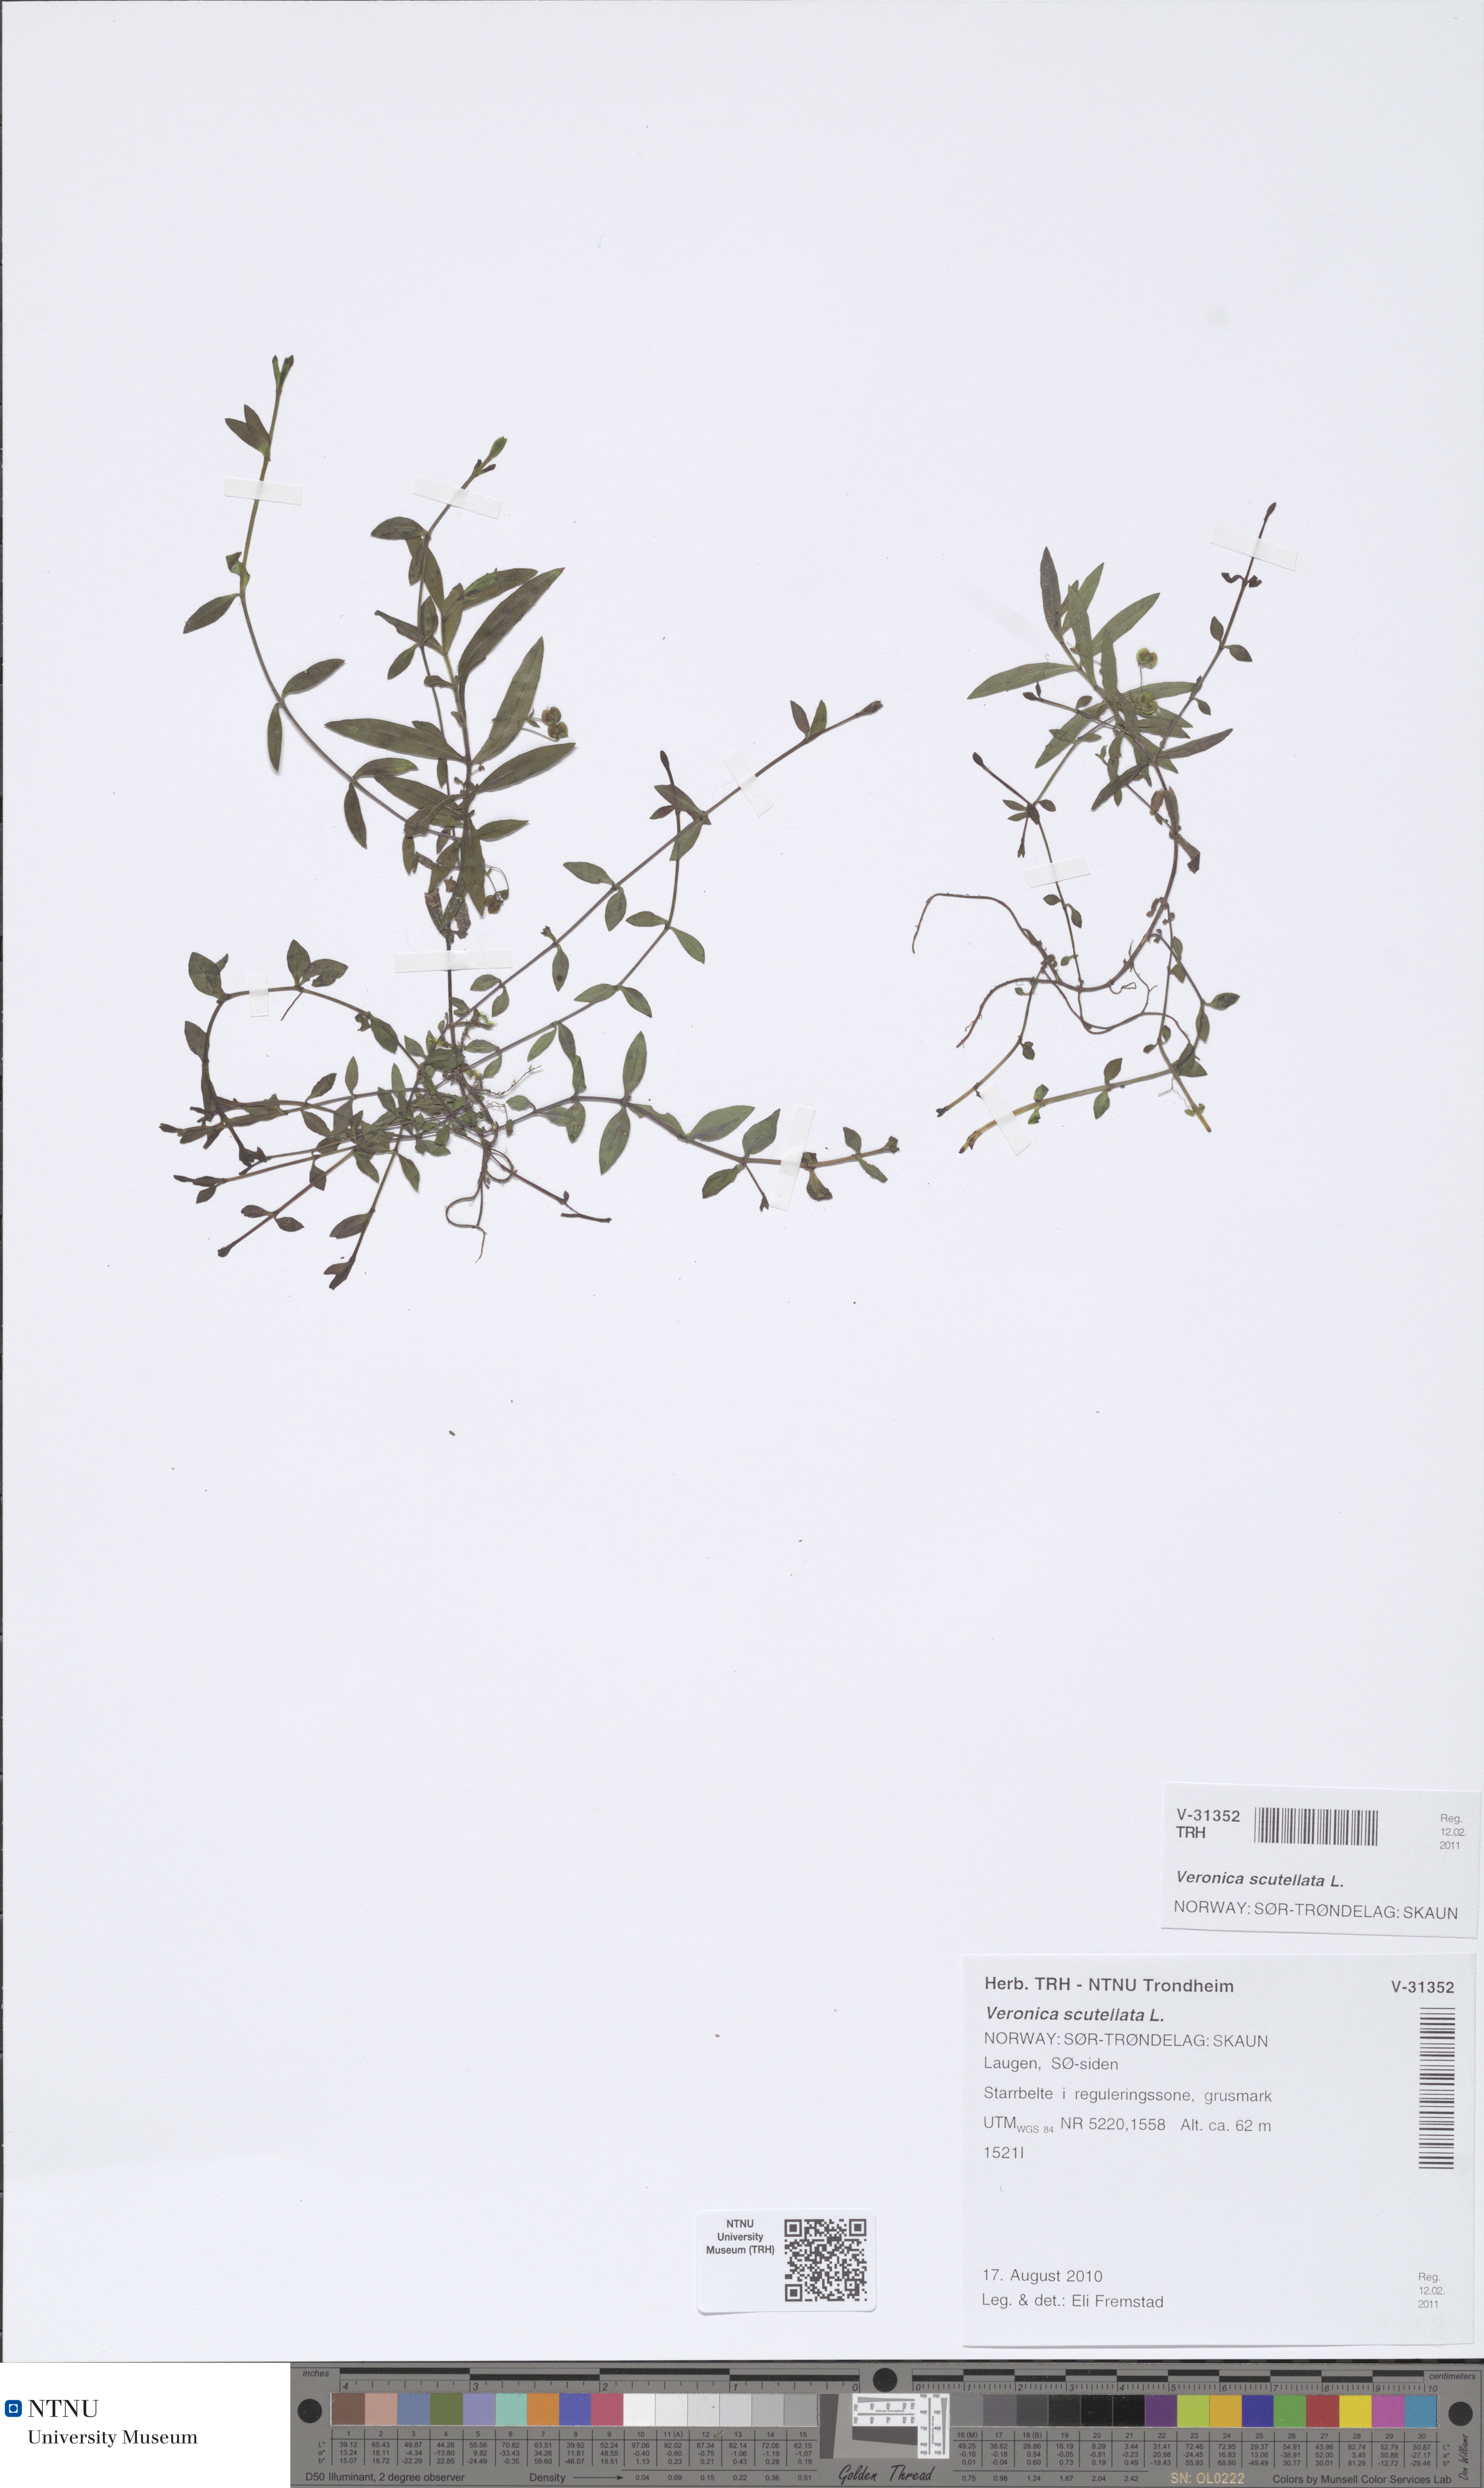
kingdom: Plantae
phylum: Tracheophyta
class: Magnoliopsida
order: Lamiales
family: Plantaginaceae
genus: Veronica
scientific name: Veronica scutellata
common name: Marsh speedwell
